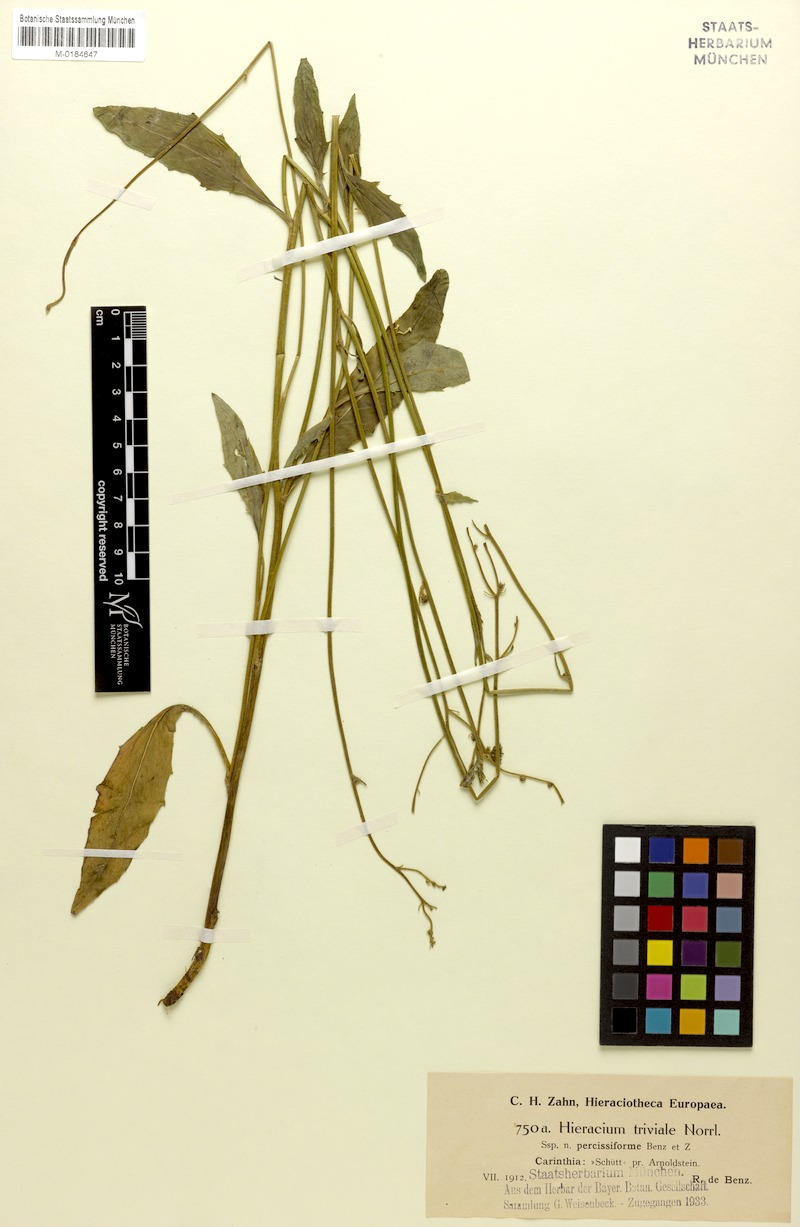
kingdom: Plantae
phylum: Tracheophyta
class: Magnoliopsida
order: Asterales
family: Asteraceae
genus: Hieracium
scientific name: Hieracium levicaule
